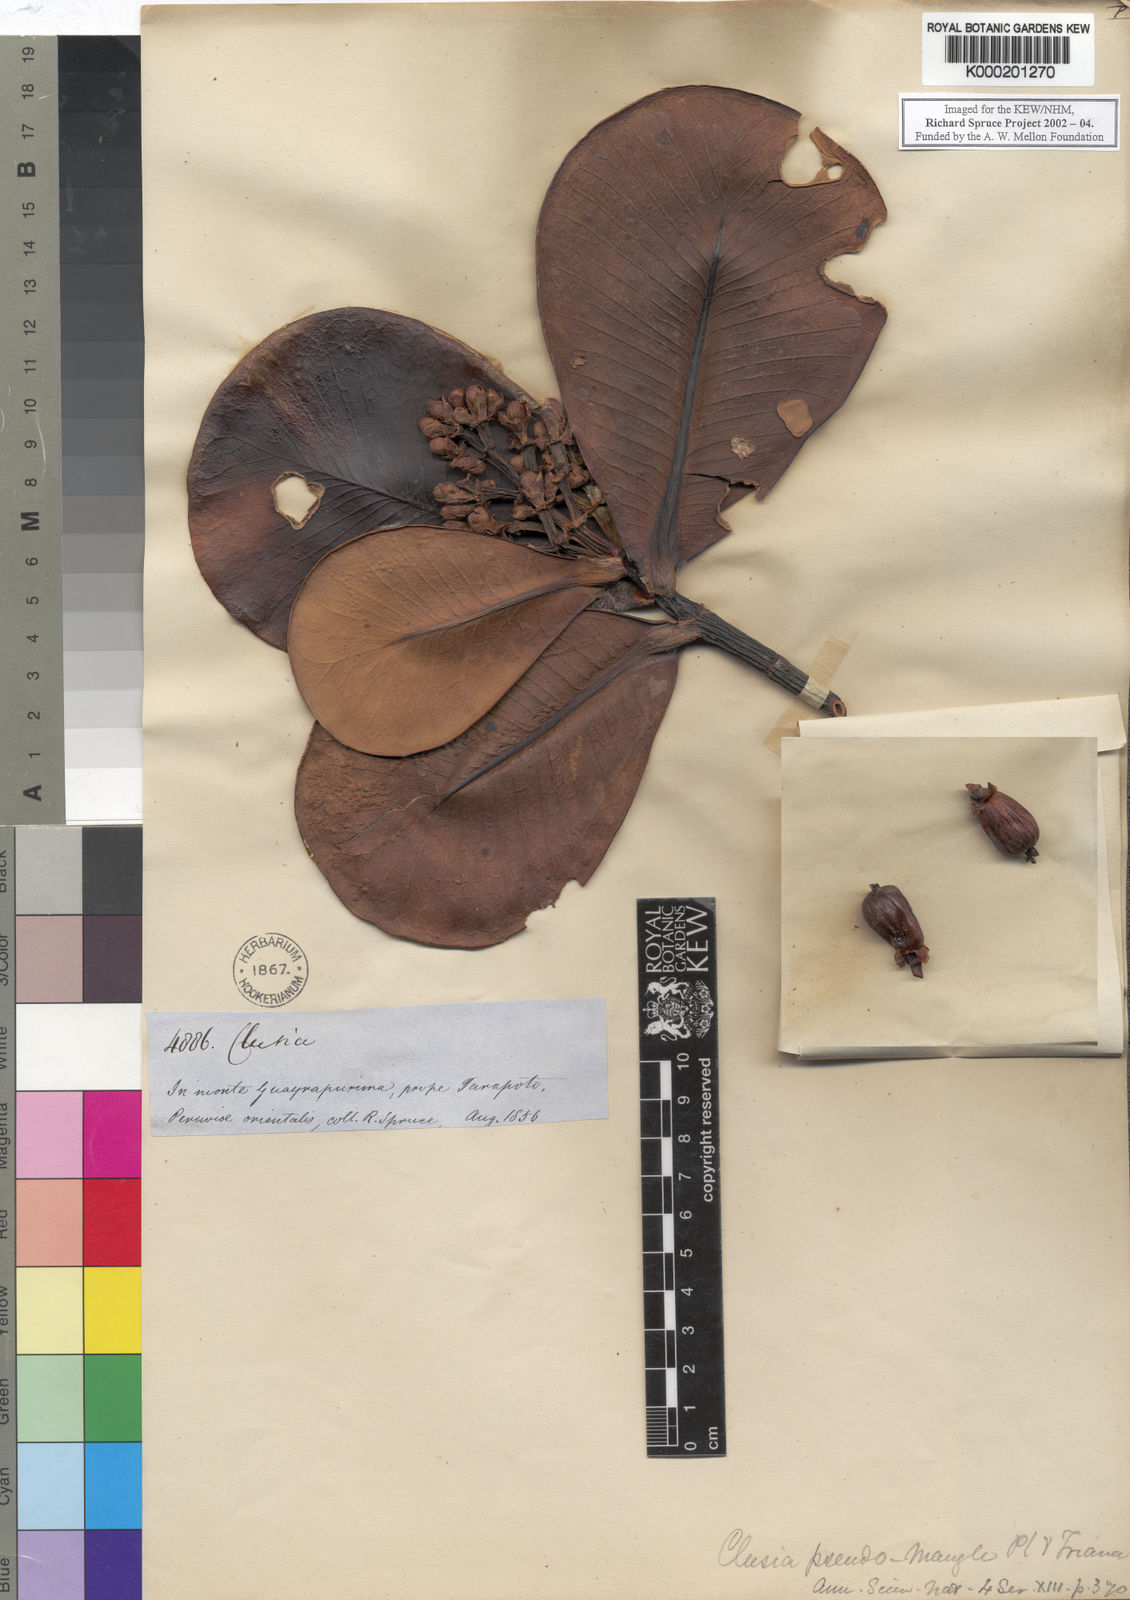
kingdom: Plantae
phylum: Tracheophyta
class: Magnoliopsida
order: Malpighiales
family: Clusiaceae
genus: Clusia
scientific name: Clusia pseudomangle
